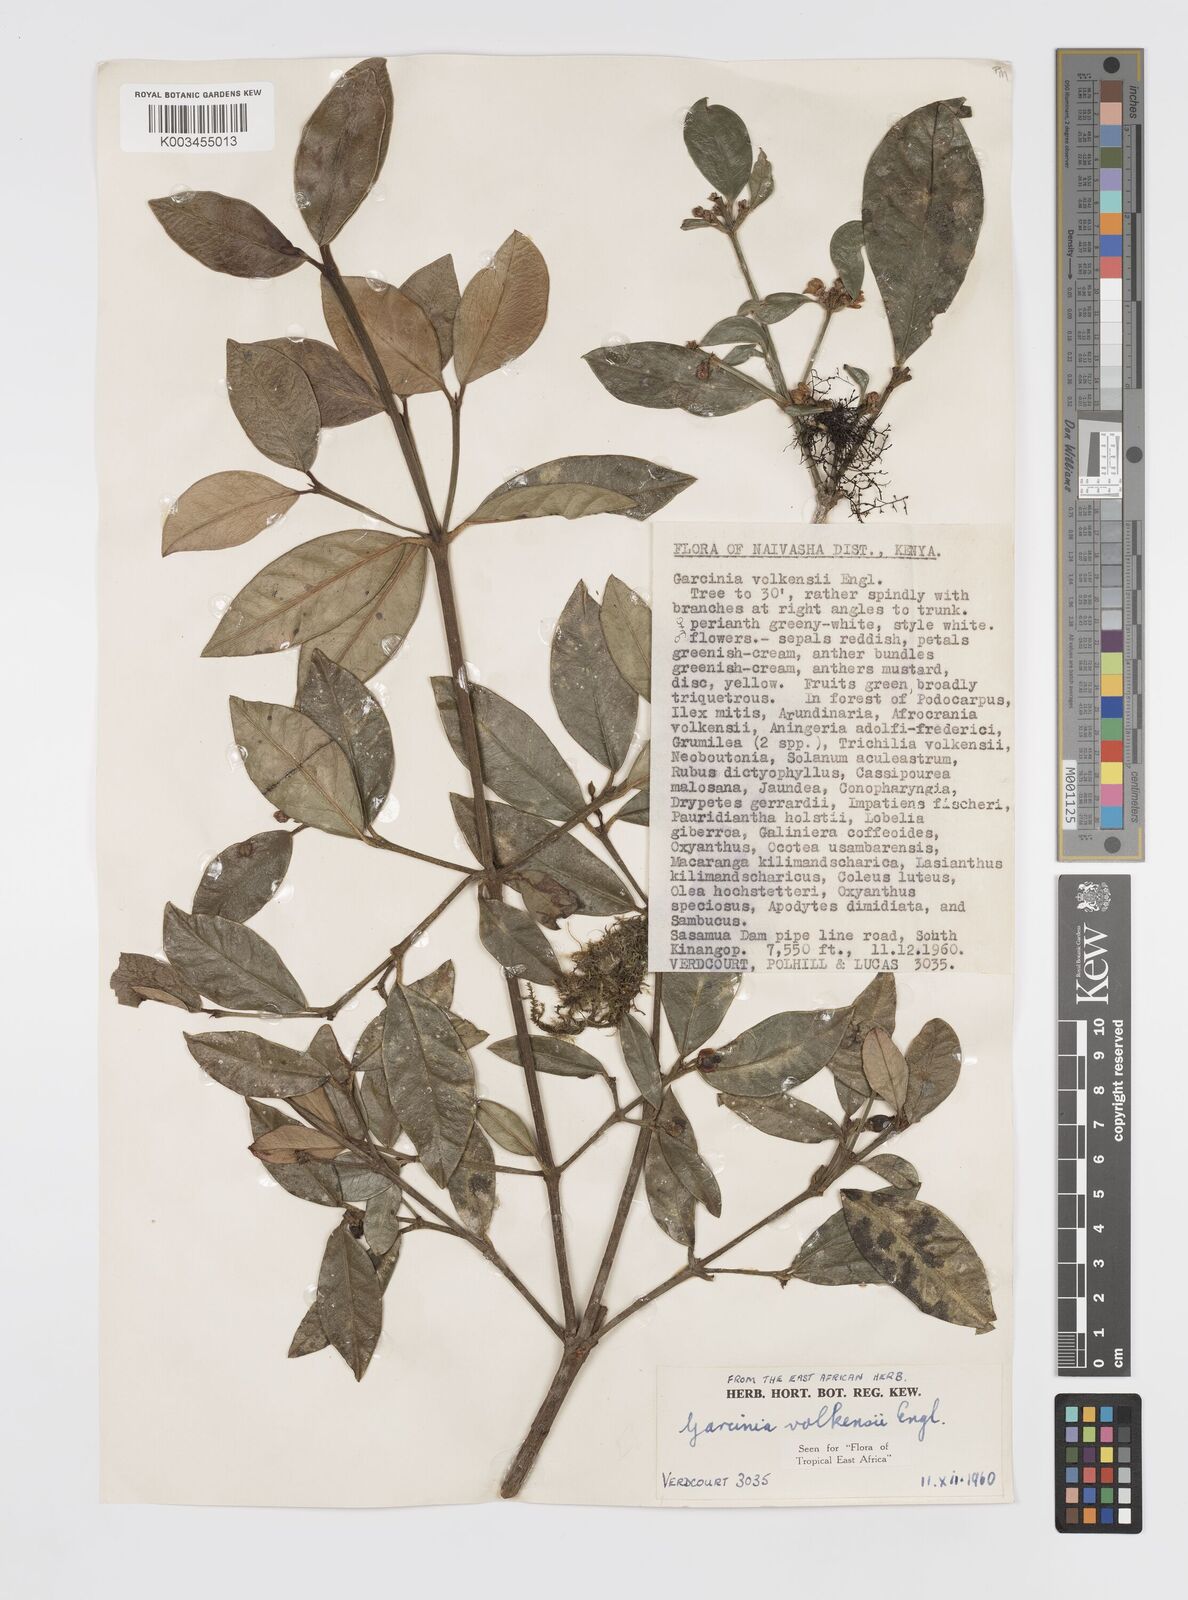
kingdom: Plantae
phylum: Tracheophyta
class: Magnoliopsida
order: Malpighiales
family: Clusiaceae
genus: Garcinia
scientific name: Garcinia volkensii
